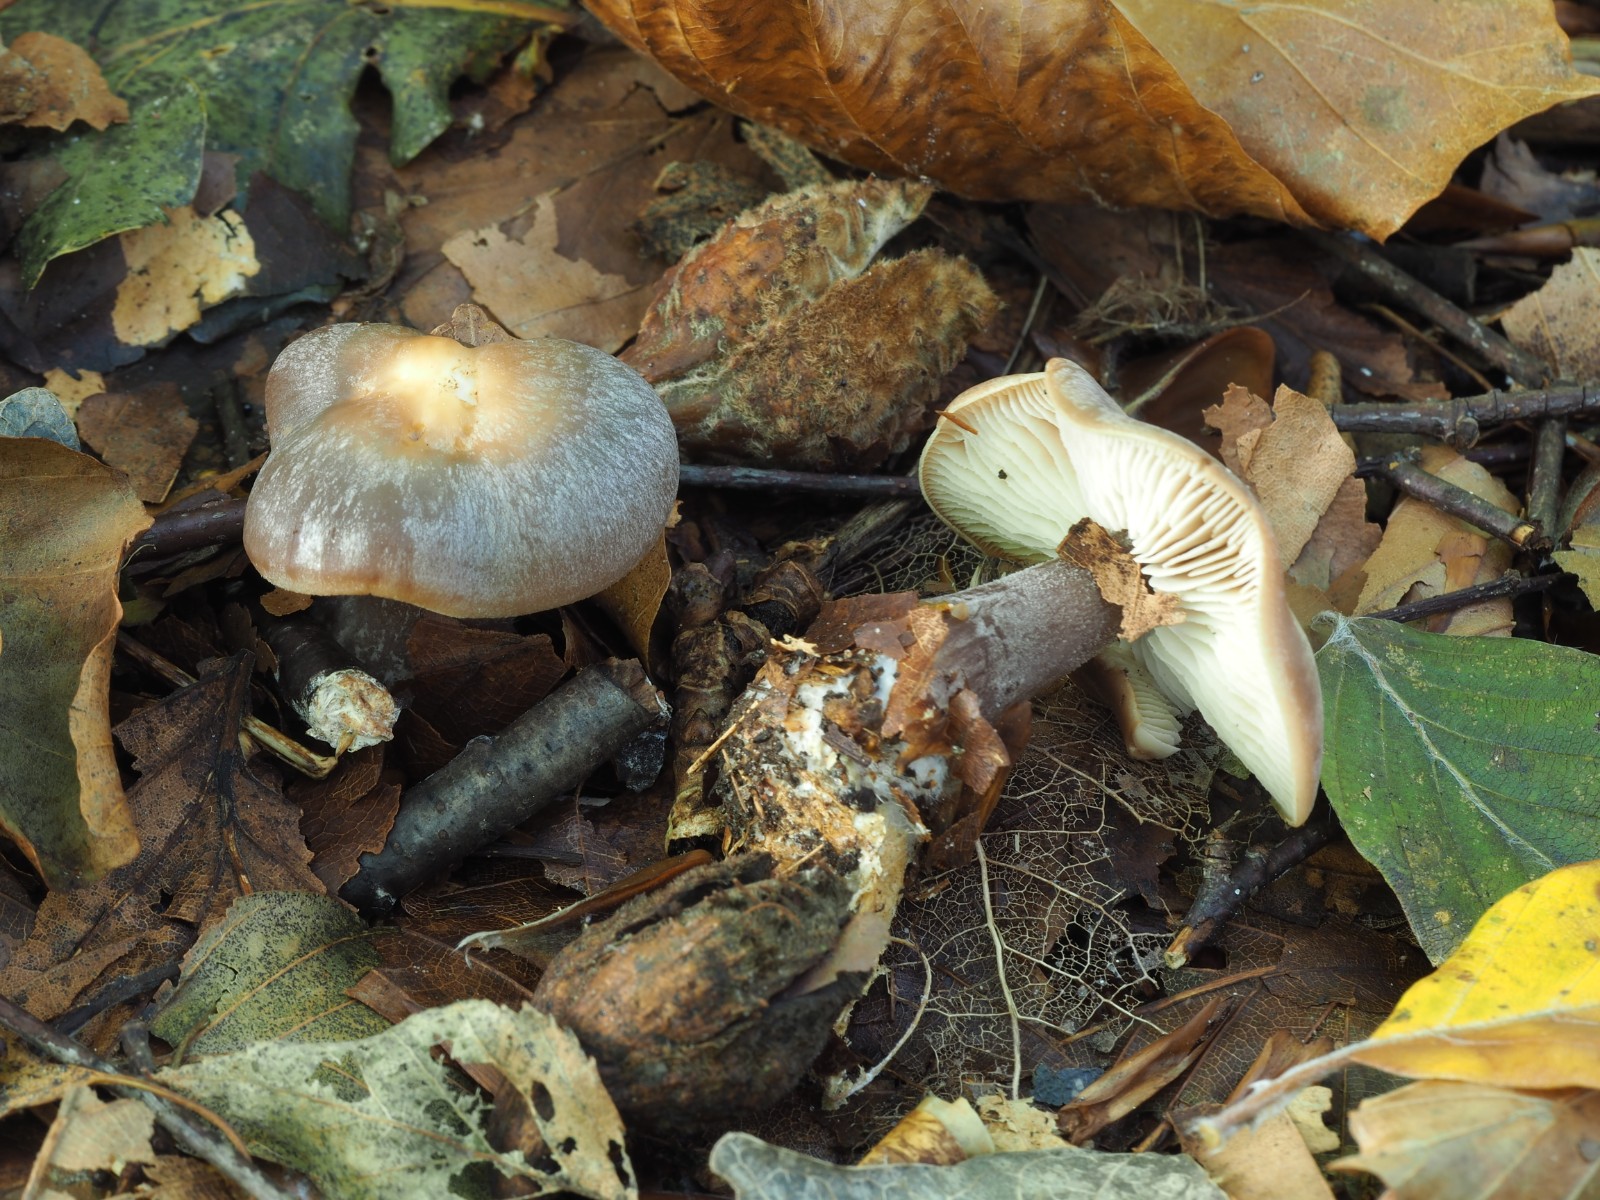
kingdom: Fungi
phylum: Basidiomycota
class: Agaricomycetes
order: Agaricales
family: Omphalotaceae
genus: Rhodocollybia
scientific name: Rhodocollybia
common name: fladhat
